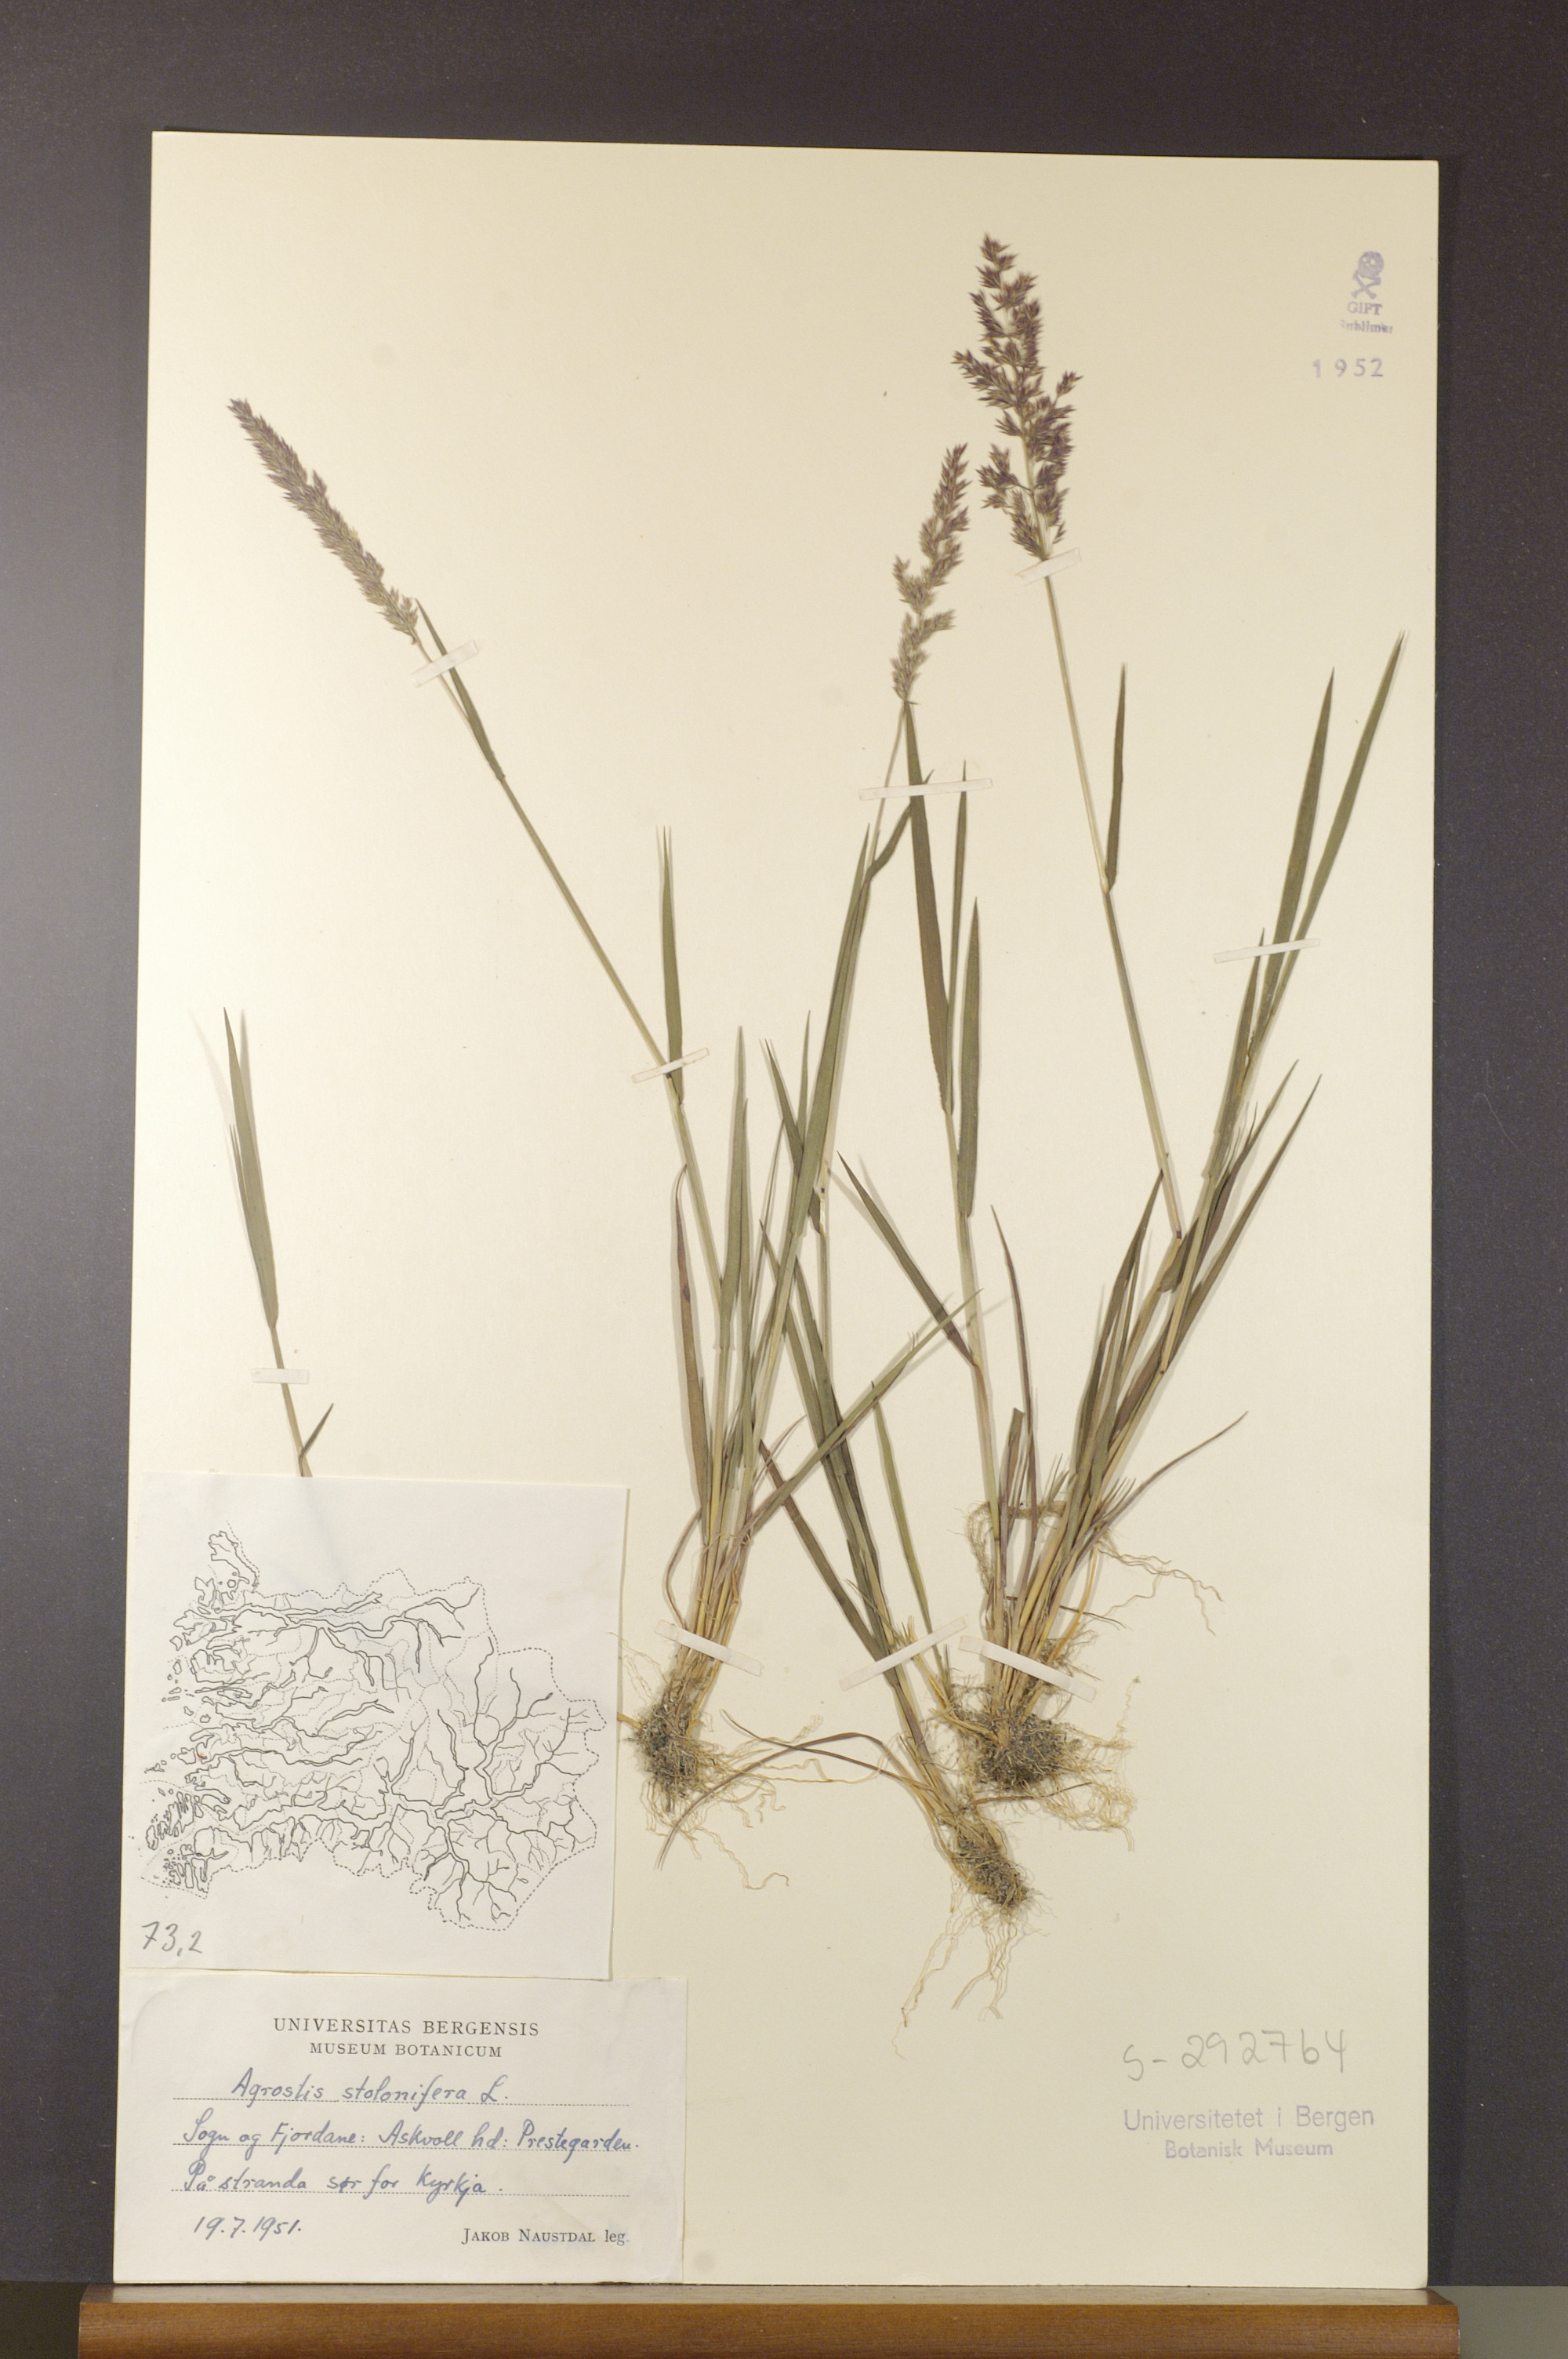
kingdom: Plantae
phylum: Tracheophyta
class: Liliopsida
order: Poales
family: Poaceae
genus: Agrostis
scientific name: Agrostis stolonifera
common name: Creeping bentgrass
